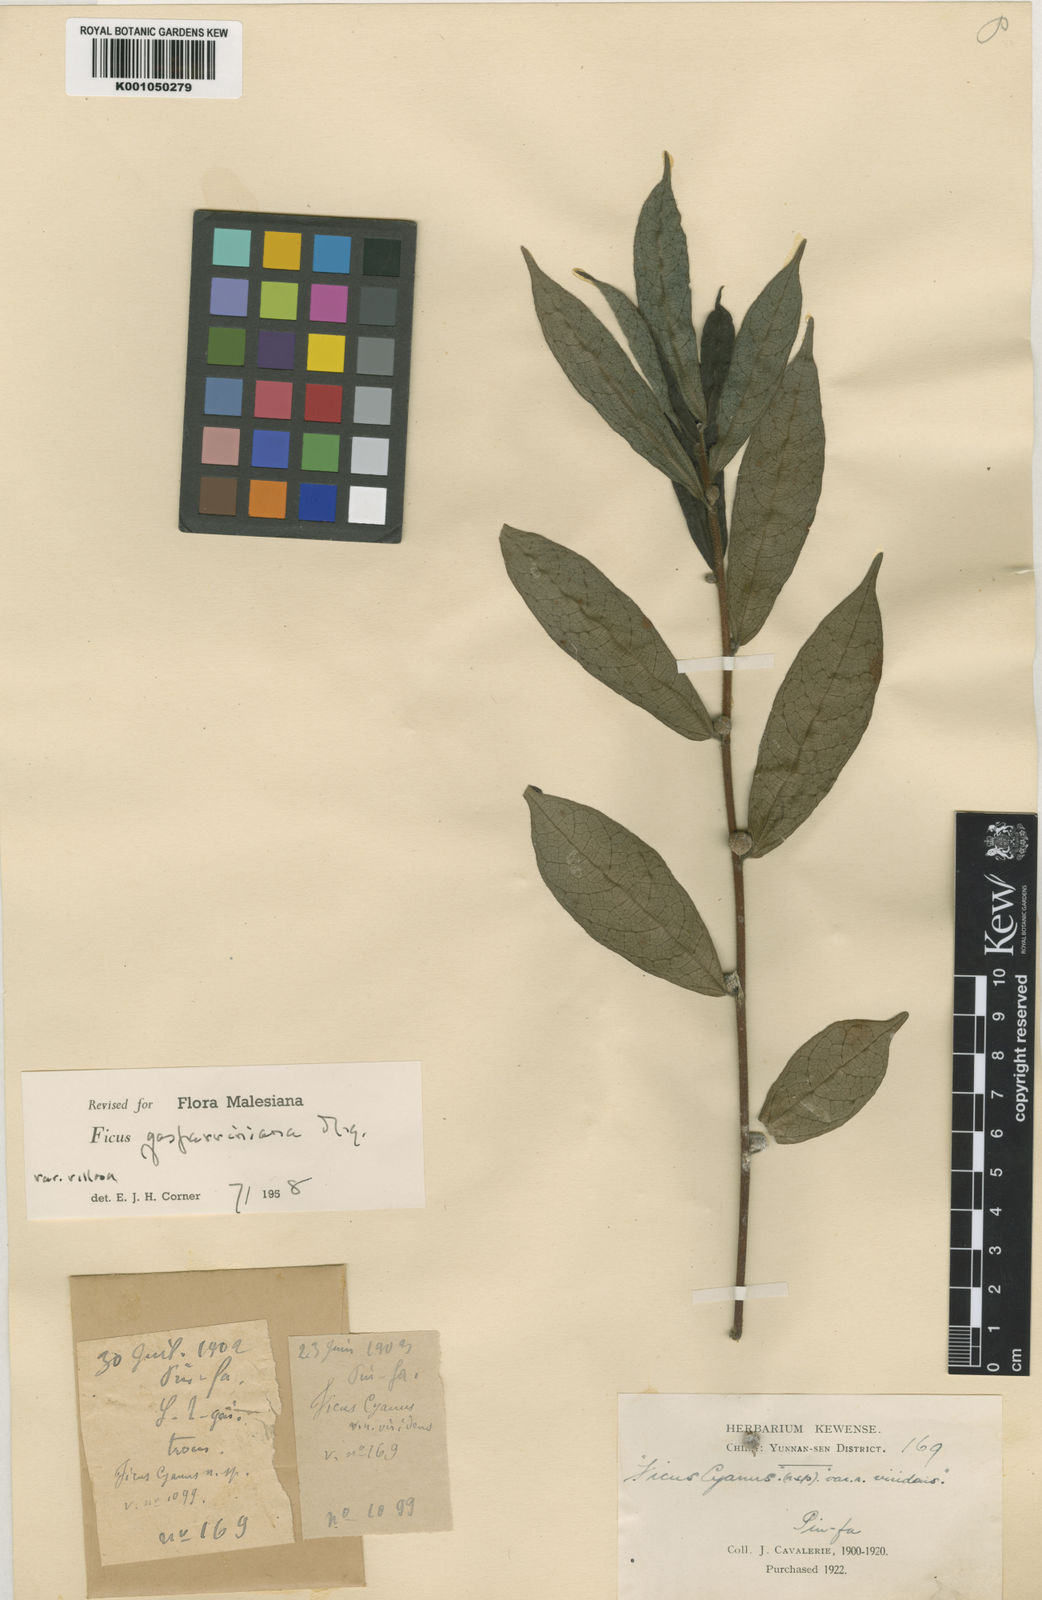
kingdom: Plantae
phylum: Tracheophyta
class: Magnoliopsida
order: Rosales
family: Moraceae
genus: Ficus
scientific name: Ficus neriifolia
